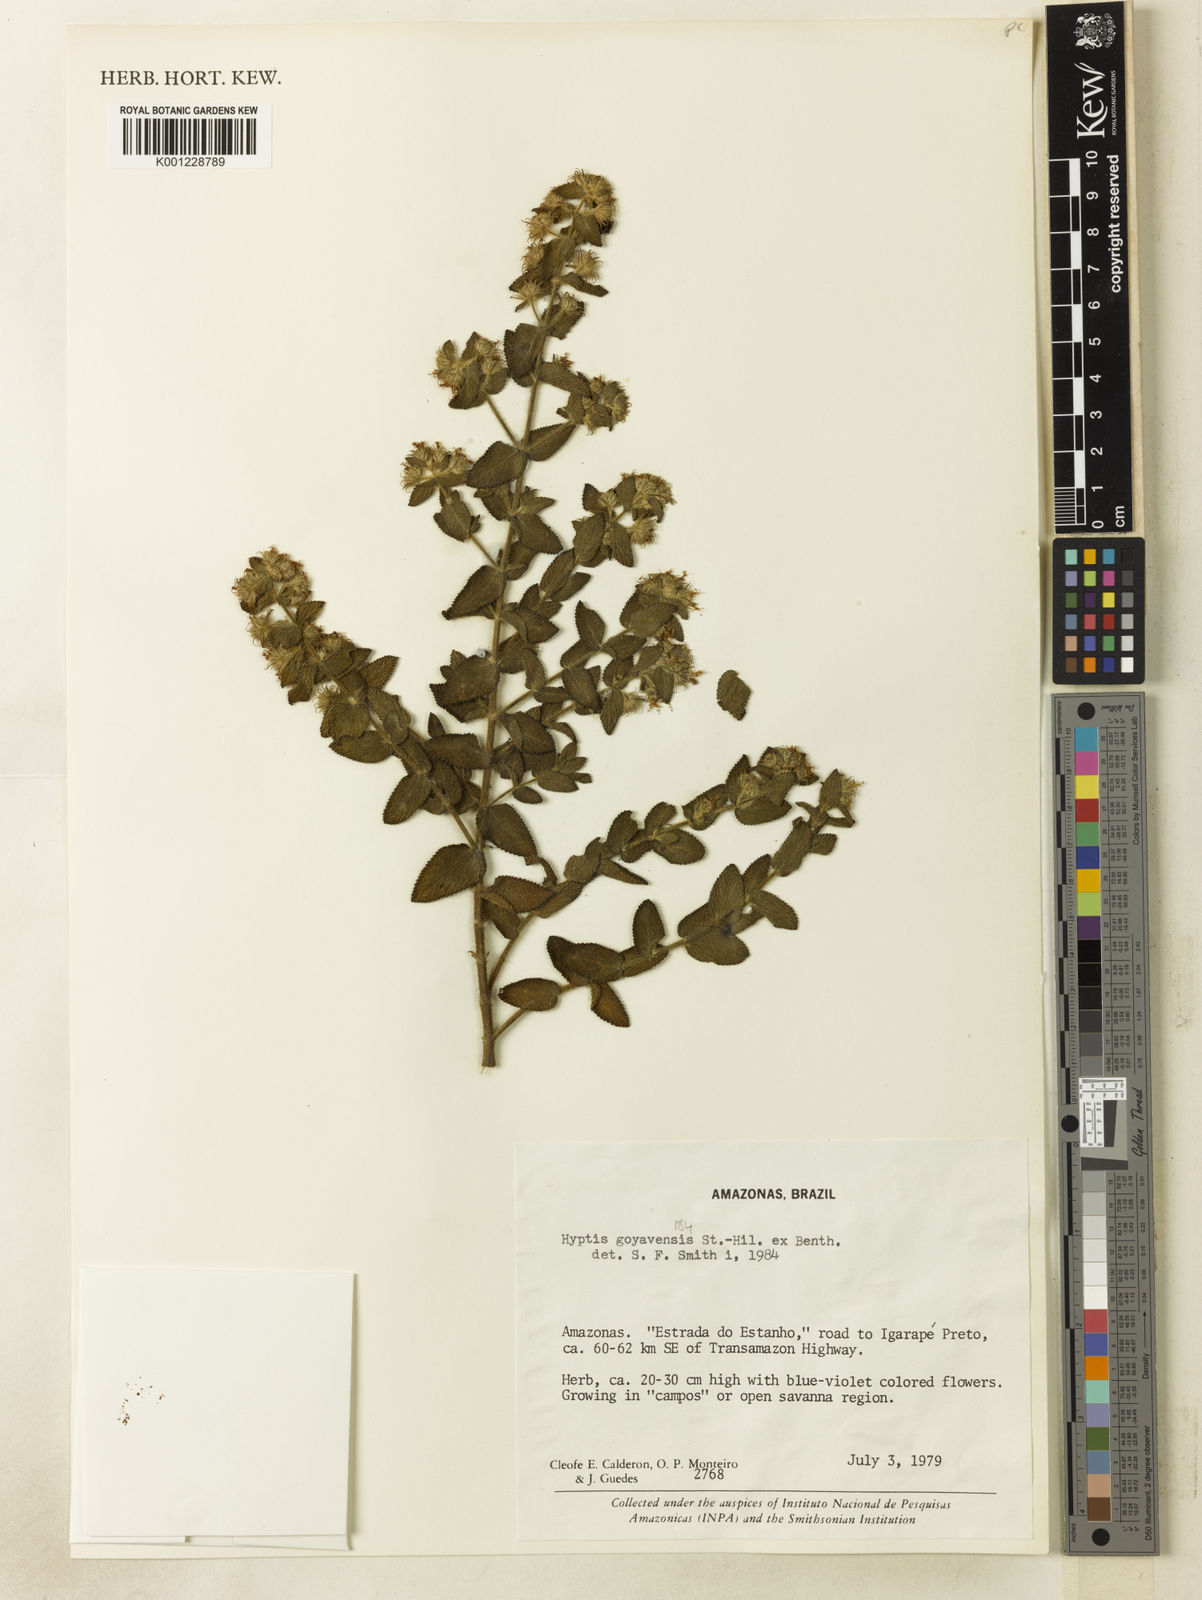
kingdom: Plantae
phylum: Tracheophyta
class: Magnoliopsida
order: Lamiales
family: Lamiaceae
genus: Hyptis
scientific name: Hyptis goyazensis
